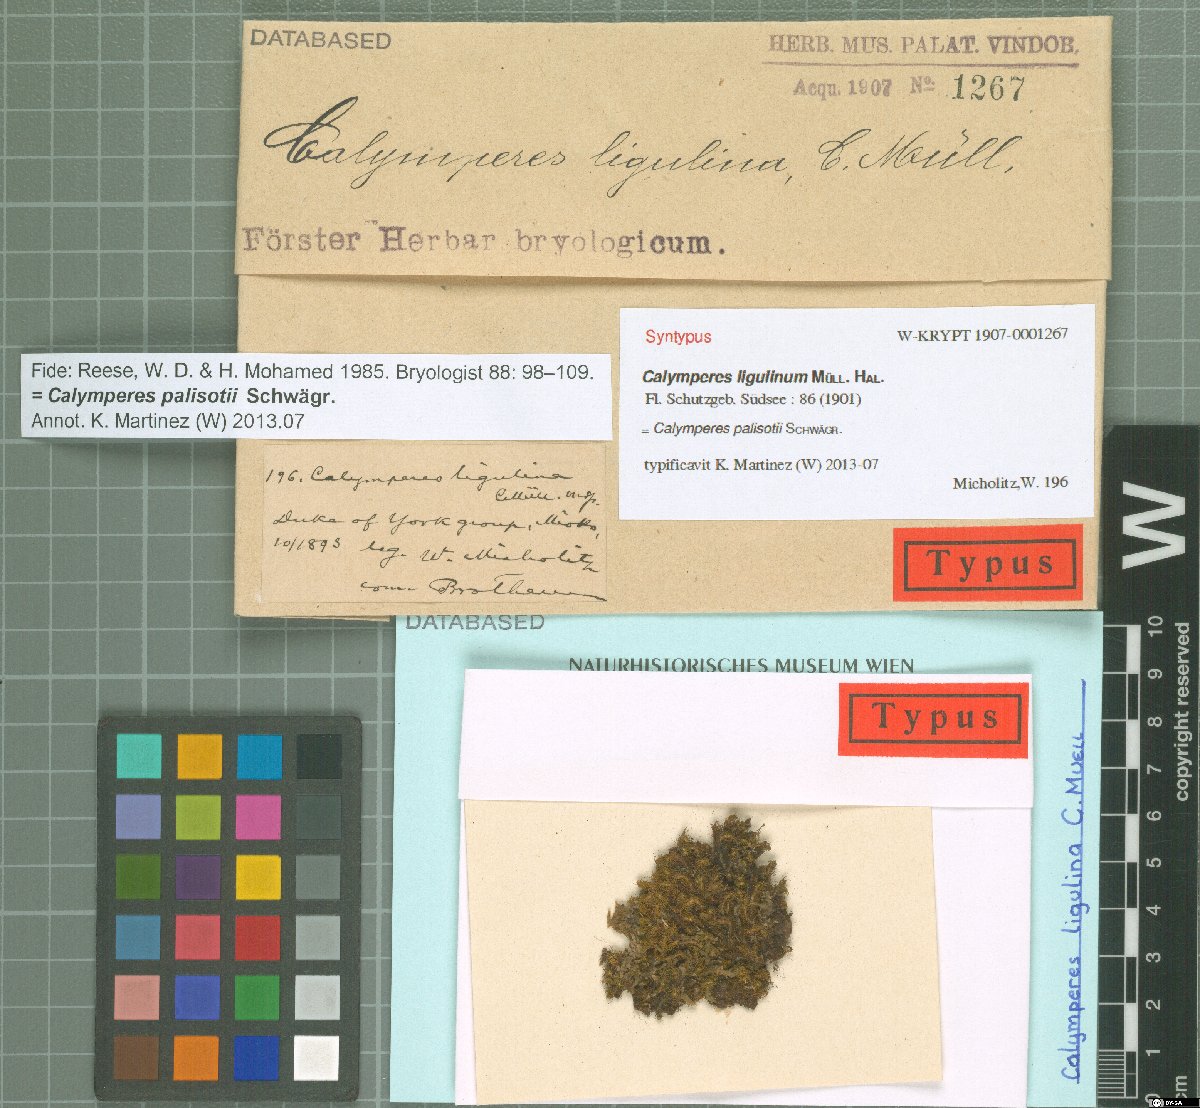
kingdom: Plantae
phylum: Bryophyta
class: Bryopsida
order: Dicranales
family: Calymperaceae
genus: Calymperes
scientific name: Calymperes palisotii
